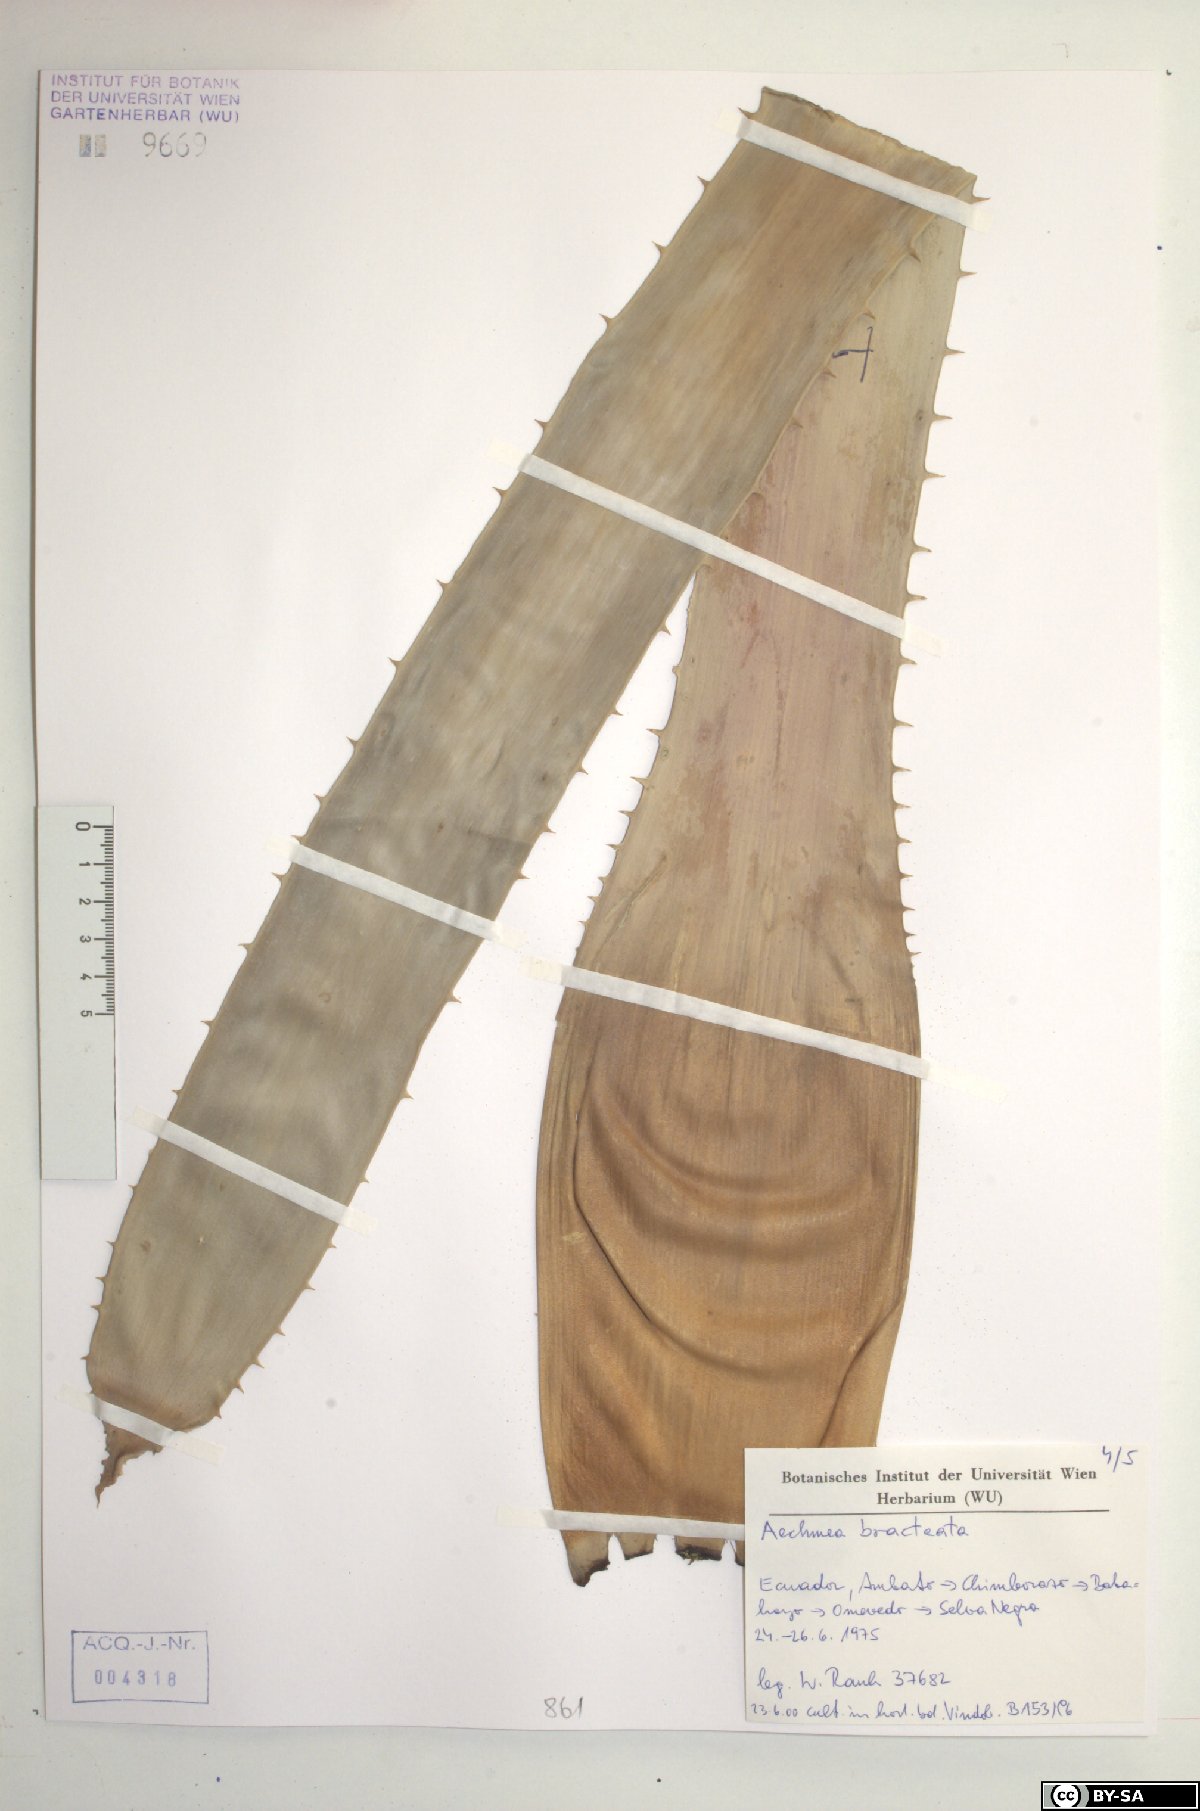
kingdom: Plantae
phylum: Tracheophyta
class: Liliopsida
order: Poales
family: Bromeliaceae
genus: Aechmea
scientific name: Aechmea bracteata
